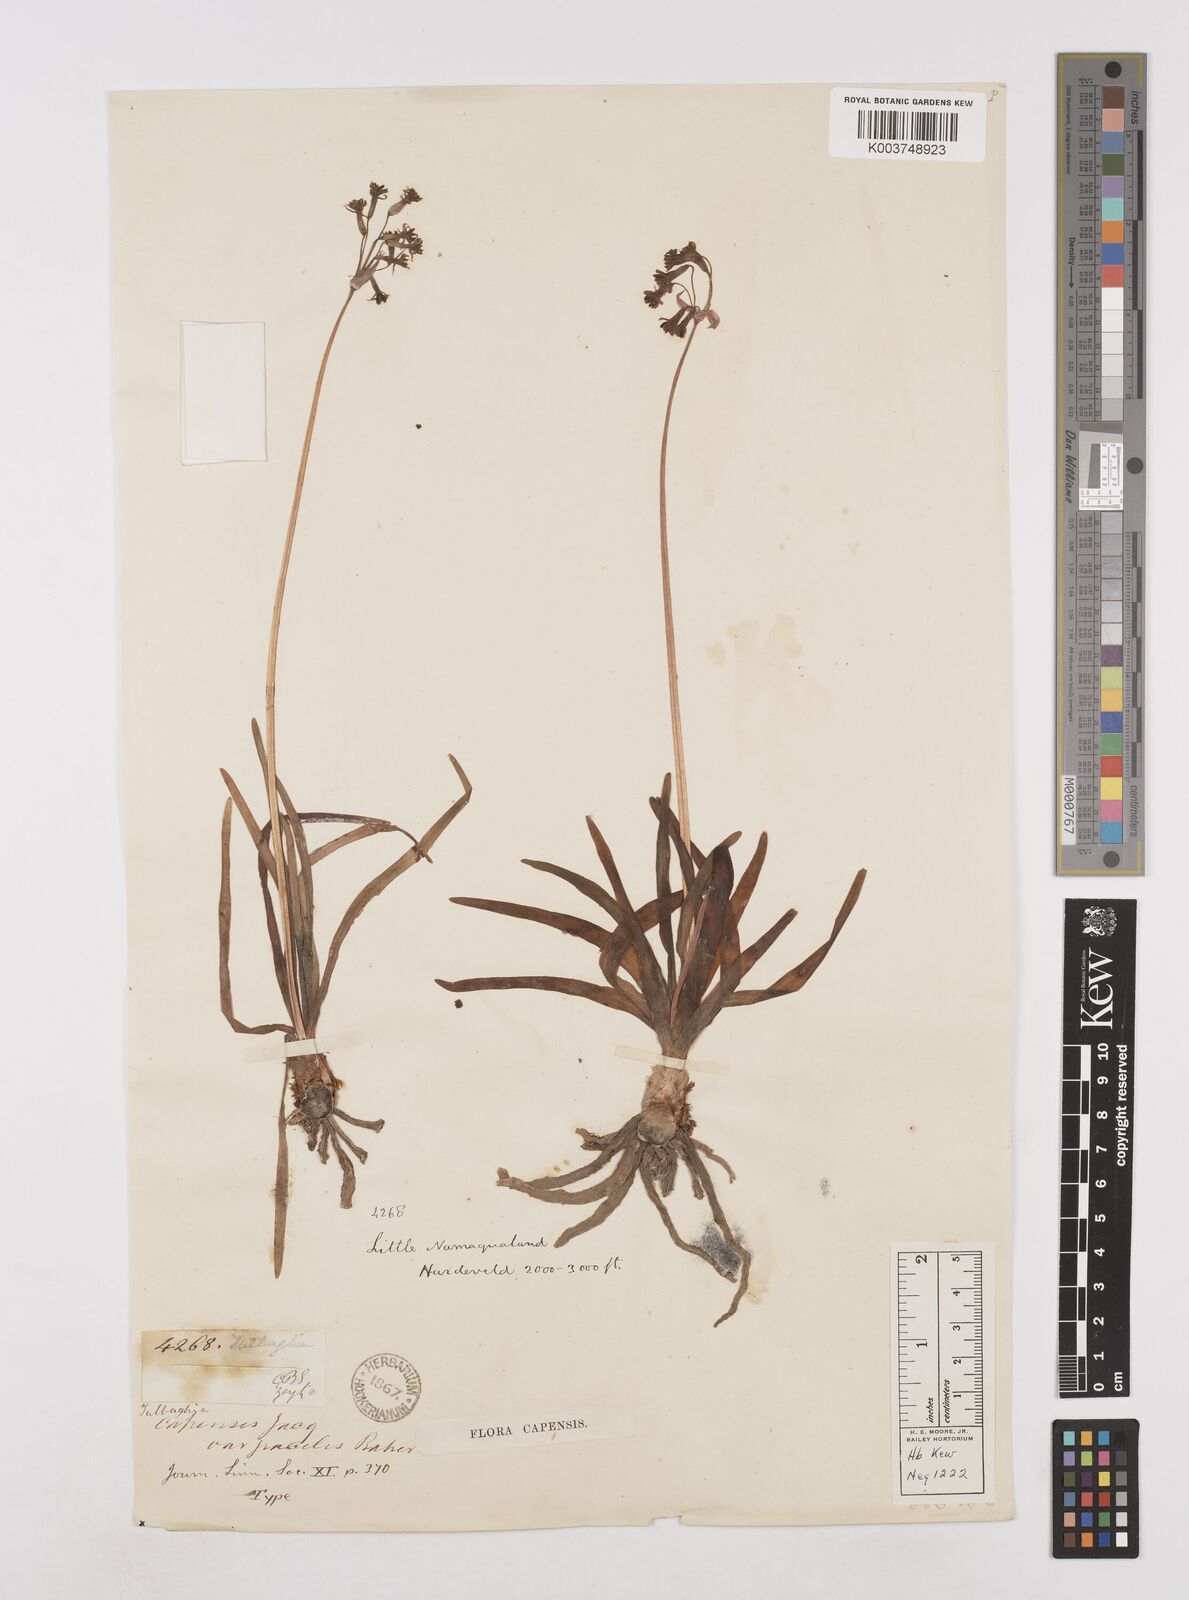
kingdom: Plantae
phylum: Tracheophyta
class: Liliopsida
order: Asparagales
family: Amaryllidaceae
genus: Tulbaghia
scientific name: Tulbaghia capensis
